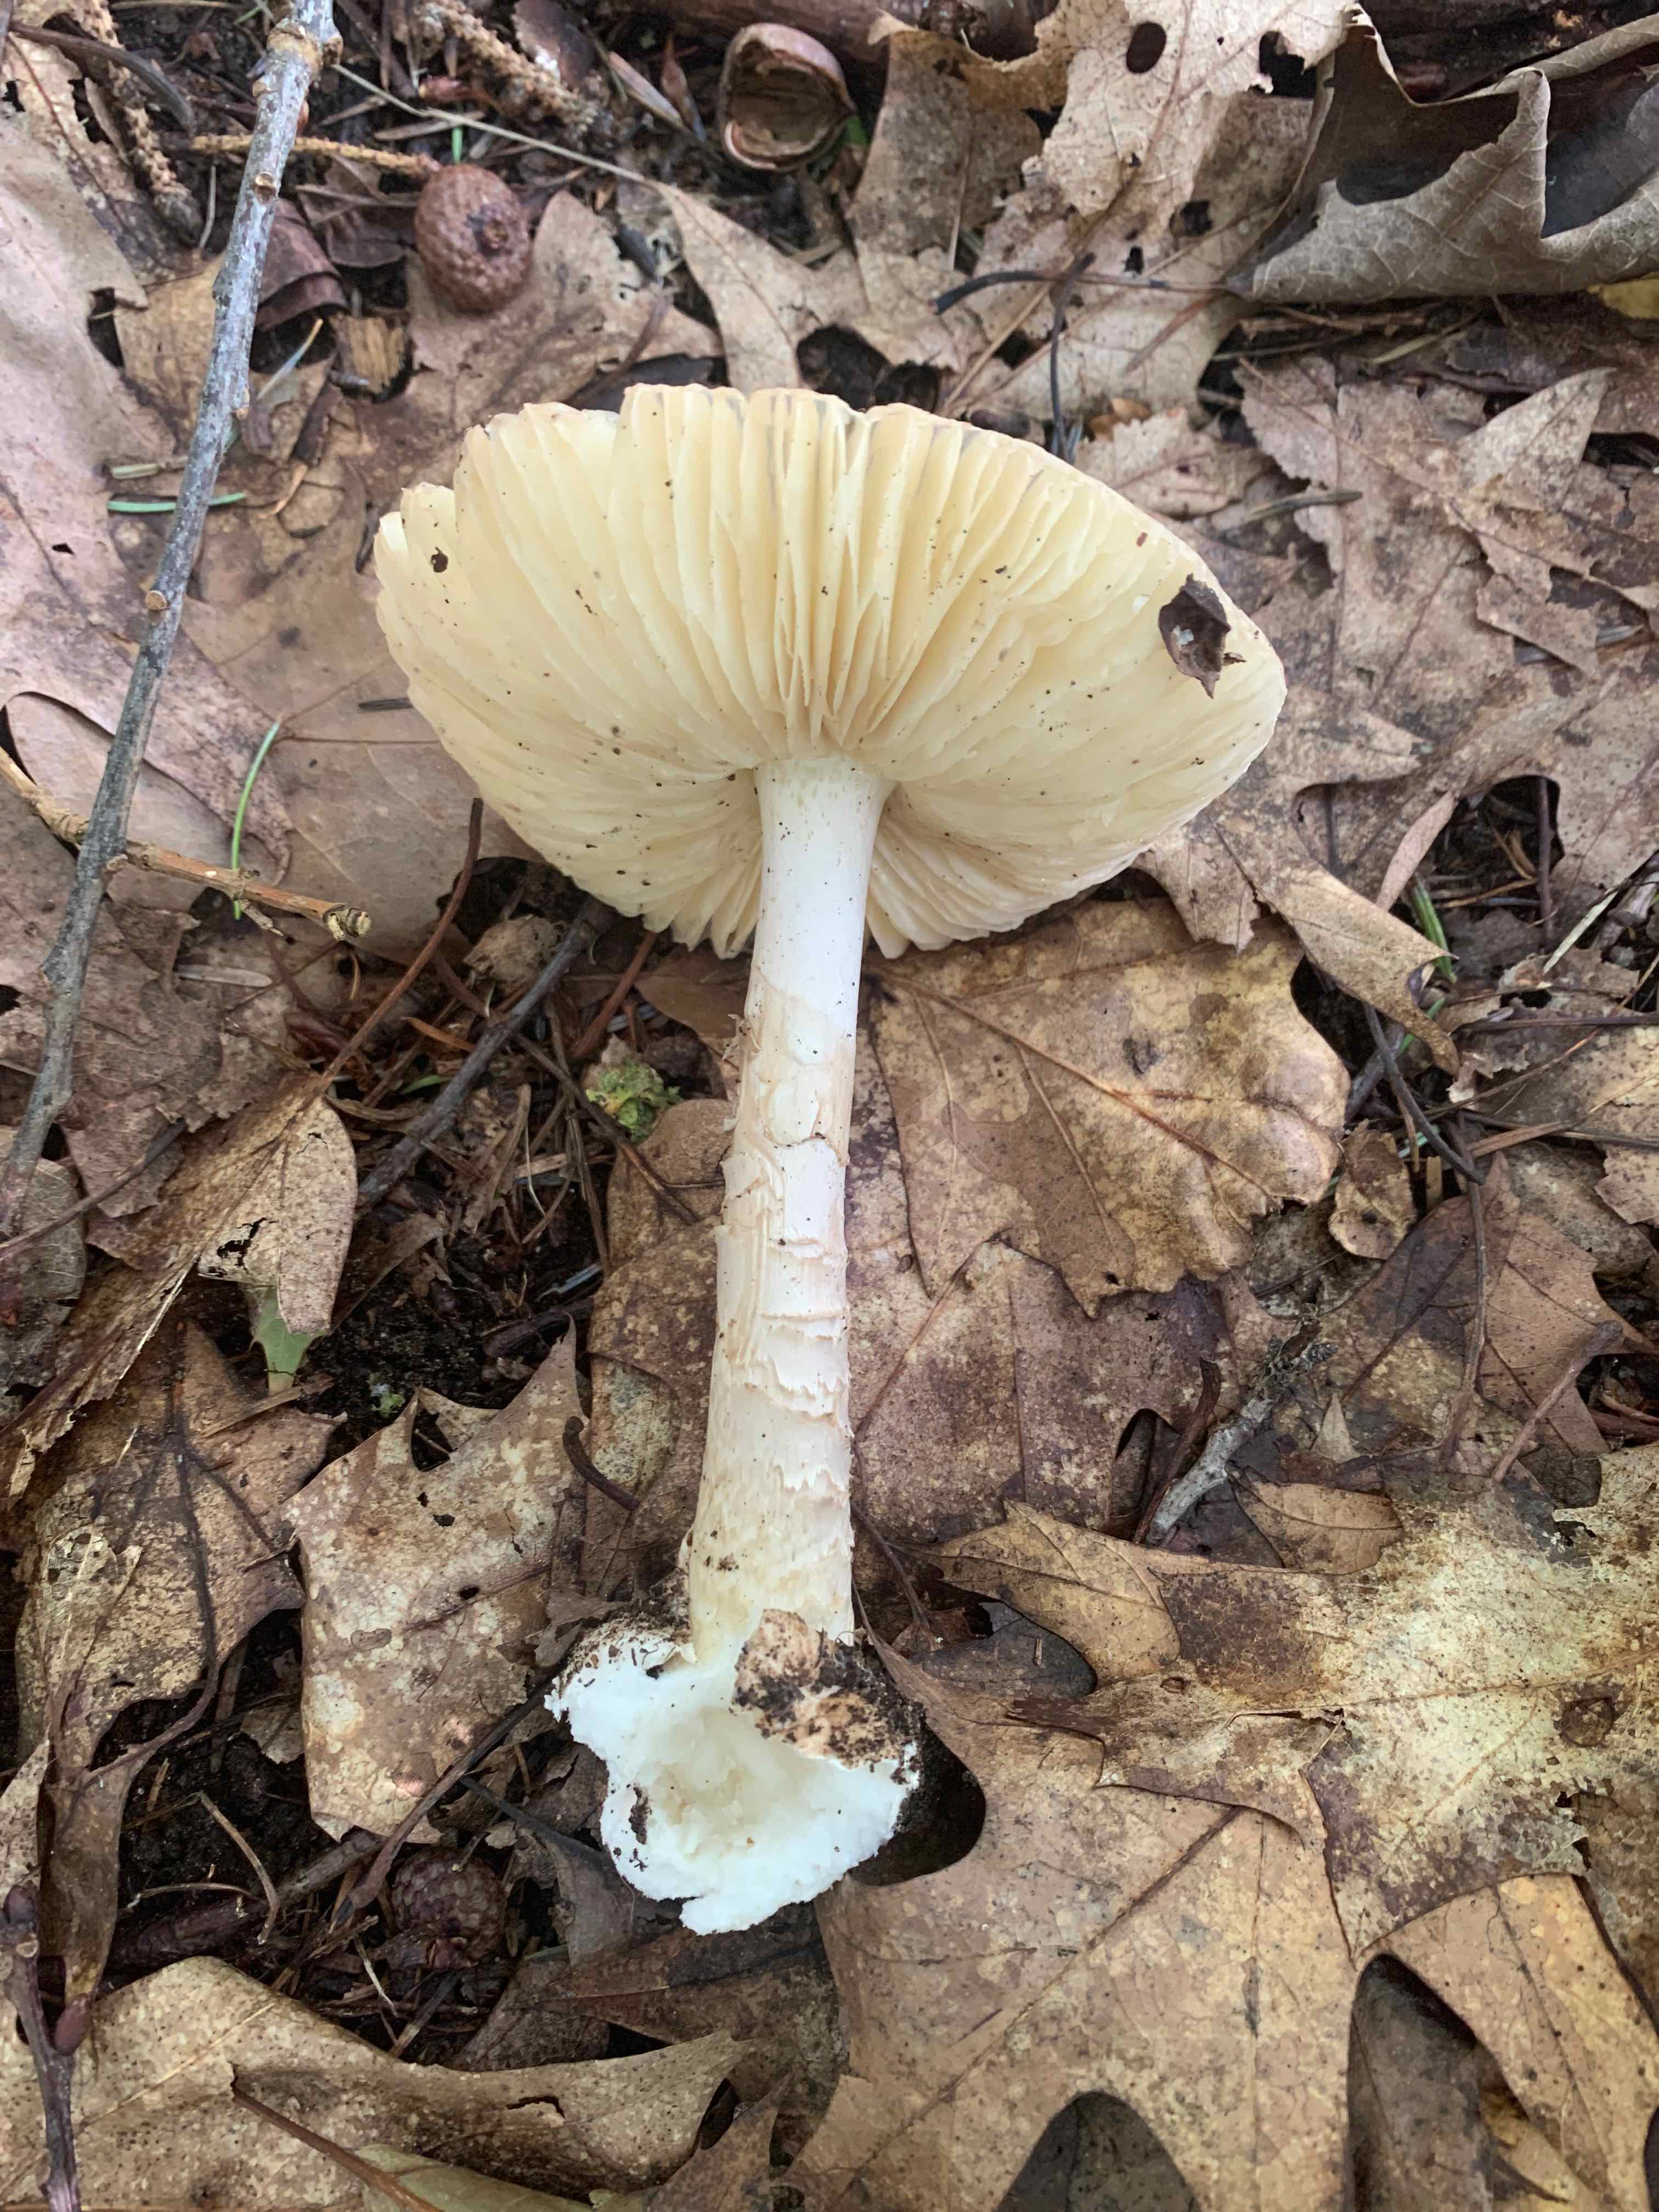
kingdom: Fungi
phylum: Basidiomycota
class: Agaricomycetes
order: Agaricales
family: Amanitaceae
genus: Amanita
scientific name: Amanita
